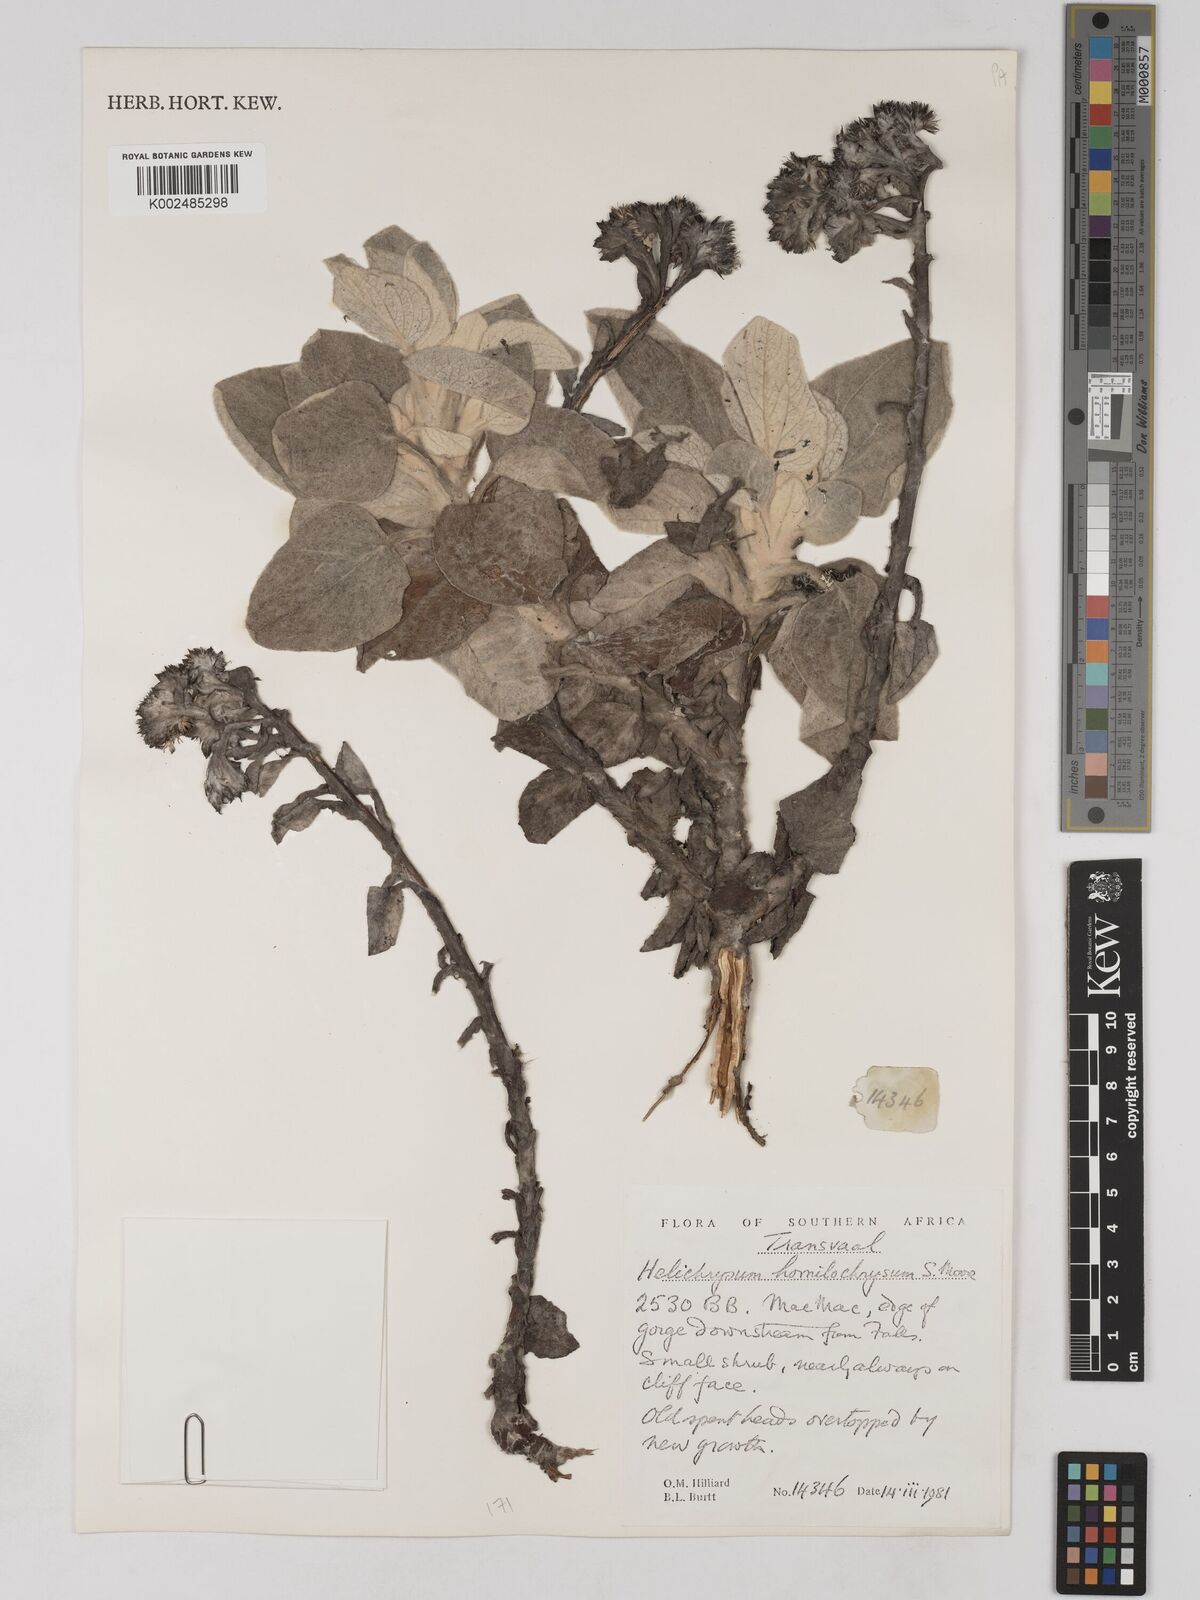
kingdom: Plantae
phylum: Tracheophyta
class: Magnoliopsida
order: Asterales
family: Asteraceae
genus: Helichrysum
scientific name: Helichrysum homilochrysum
